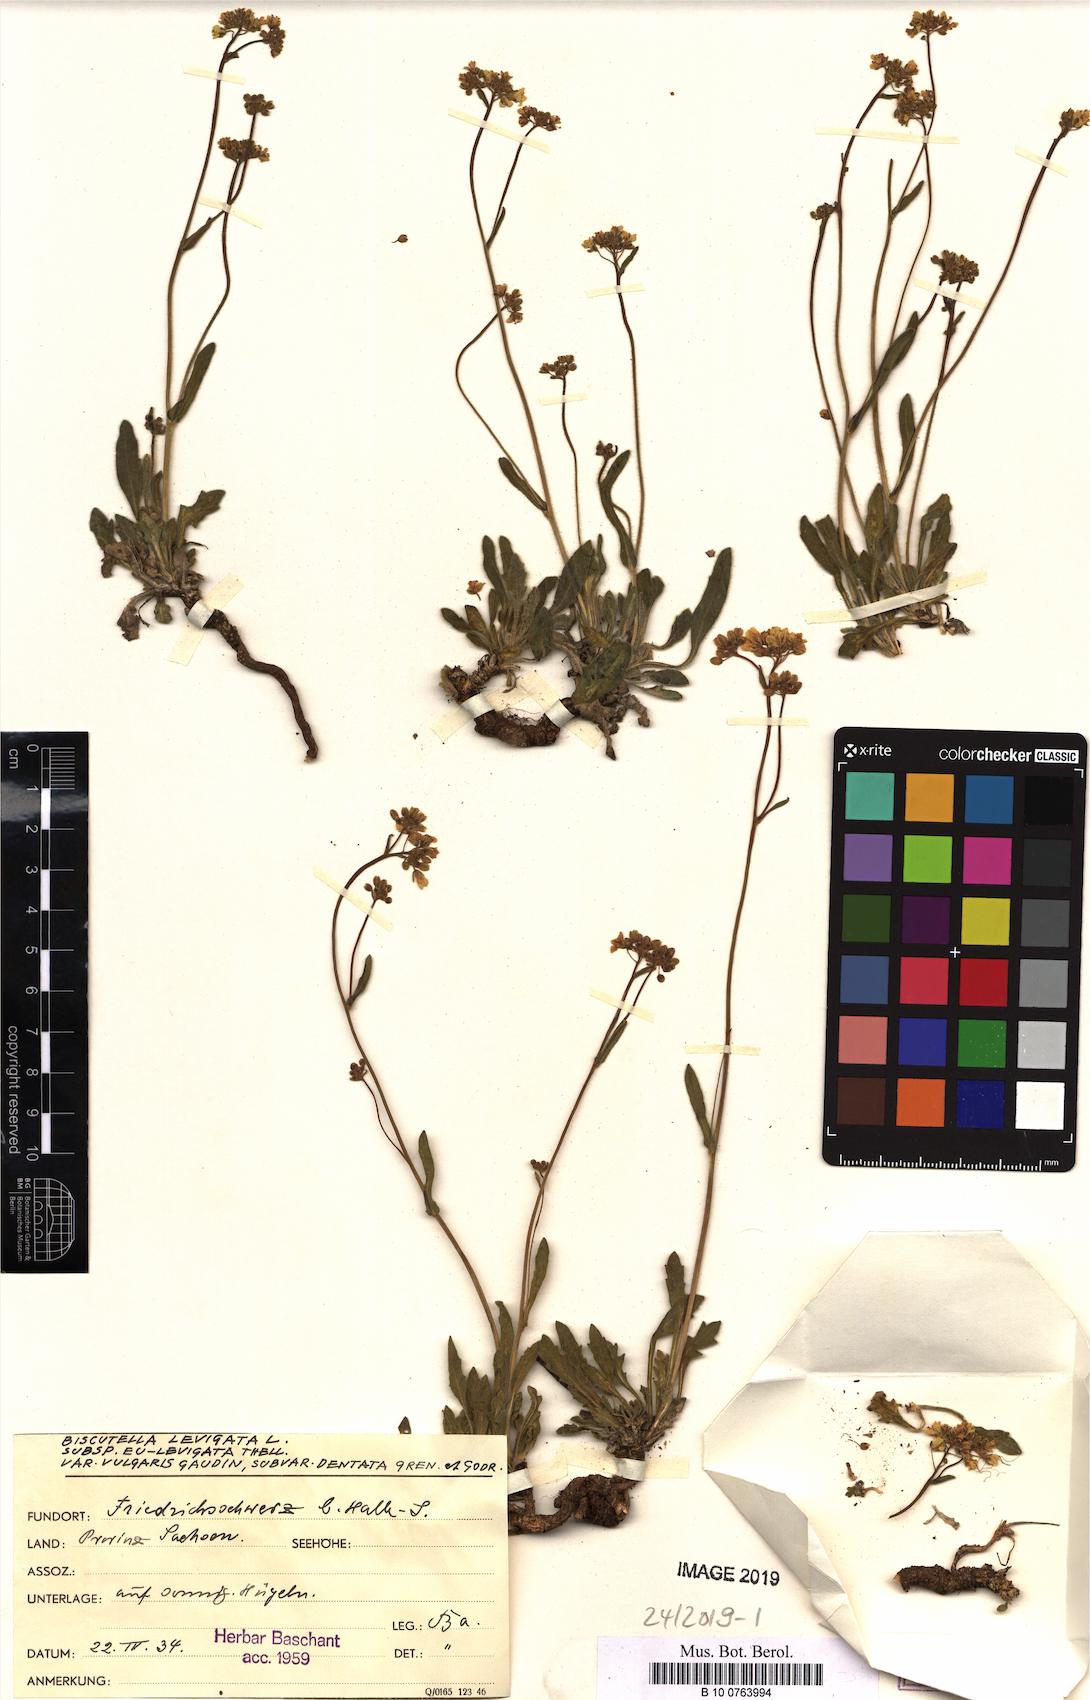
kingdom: Plantae
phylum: Tracheophyta
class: Magnoliopsida
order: Brassicales
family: Brassicaceae
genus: Biscutella
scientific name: Biscutella laevigata
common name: Buckler mustard
